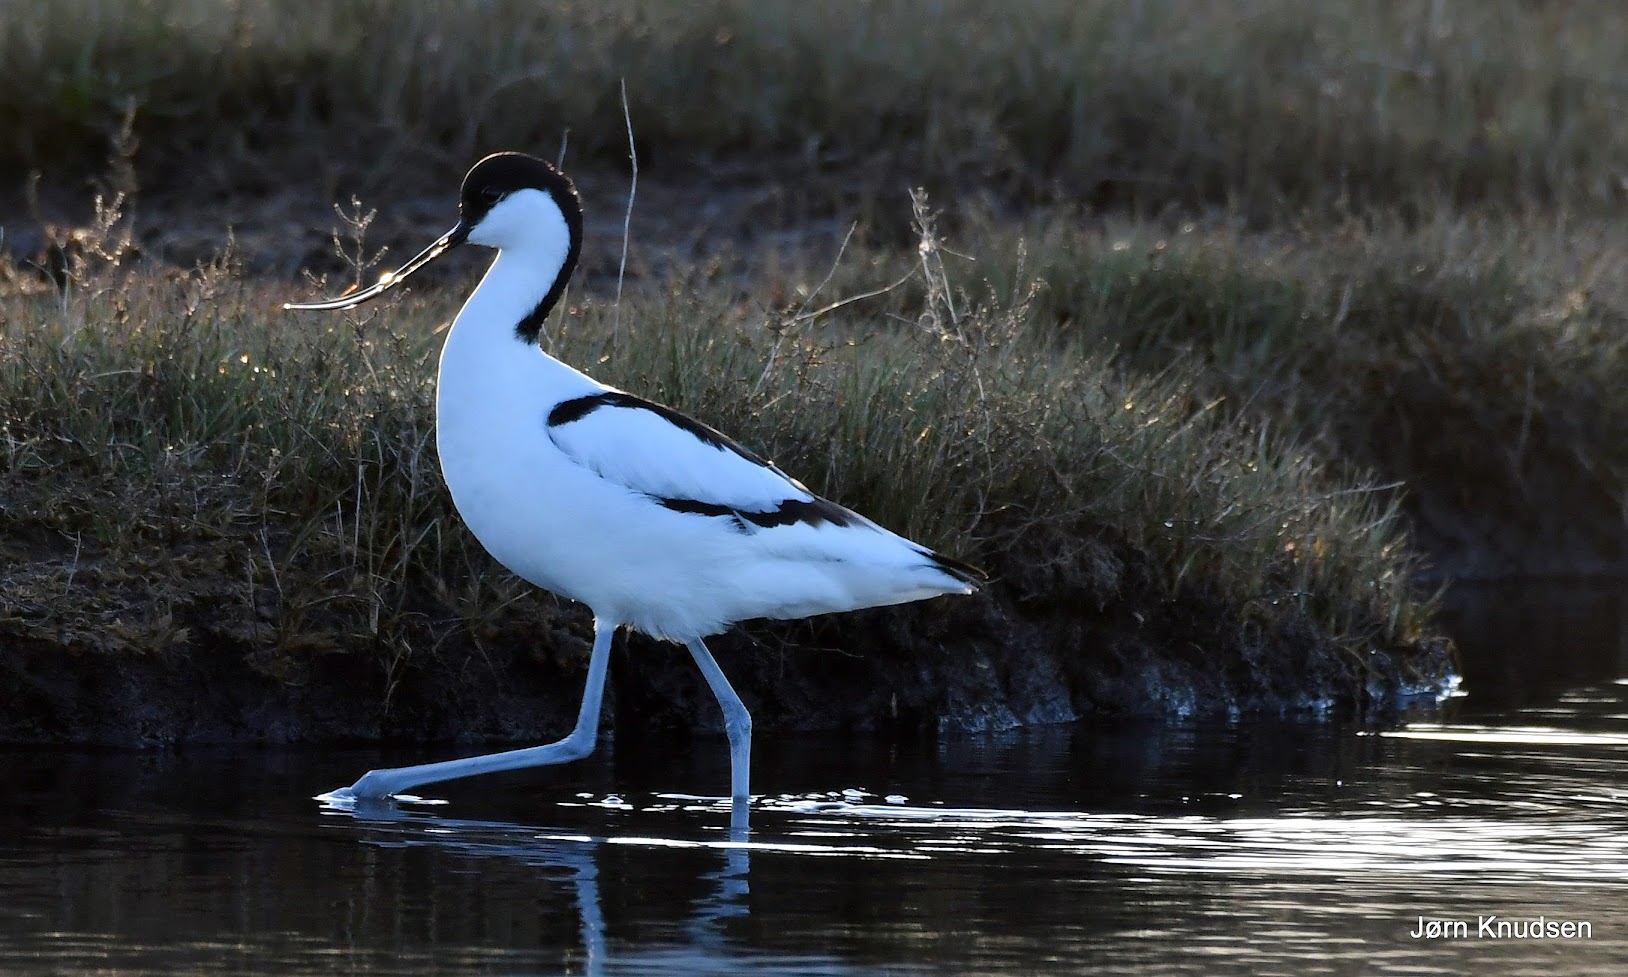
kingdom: Animalia
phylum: Chordata
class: Aves
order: Charadriiformes
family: Recurvirostridae
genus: Recurvirostra
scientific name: Recurvirostra avosetta
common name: Klyde
